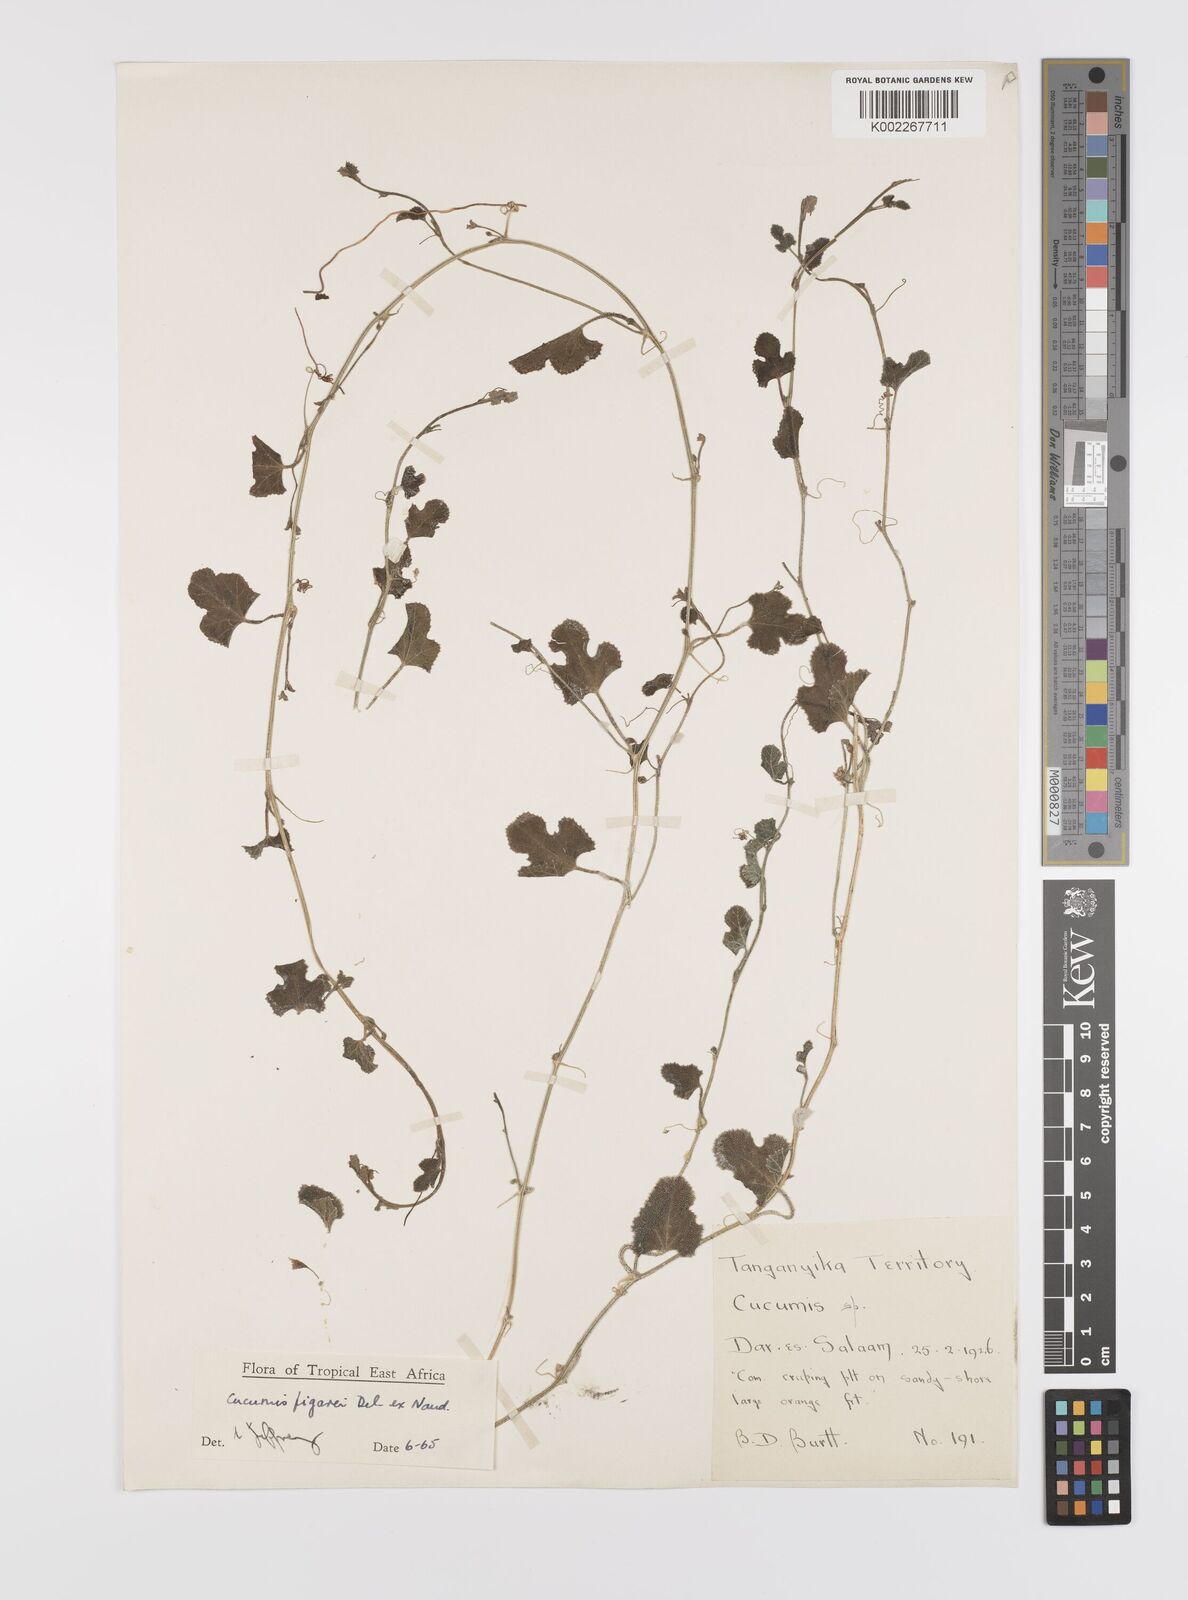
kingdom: Plantae
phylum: Tracheophyta
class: Magnoliopsida
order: Cucurbitales
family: Cucurbitaceae
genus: Cucumis
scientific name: Cucumis pustulatus
